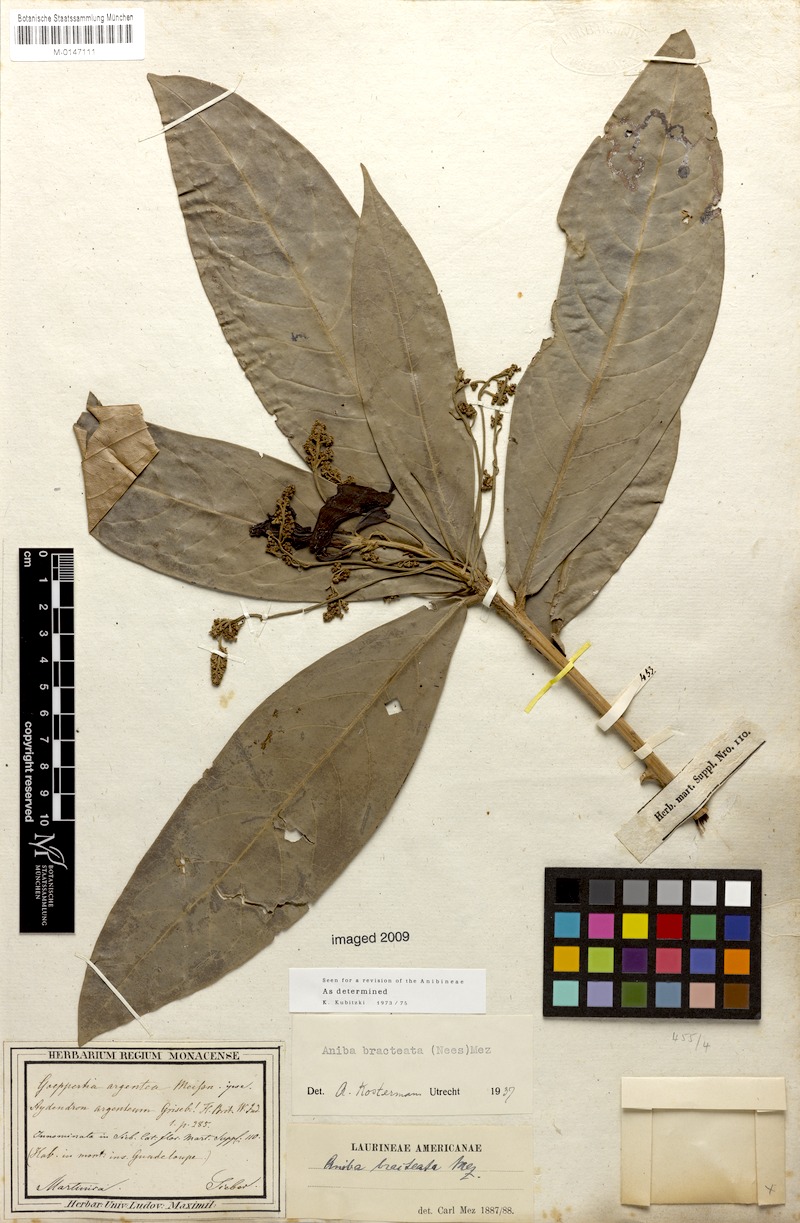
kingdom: Plantae
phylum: Tracheophyta
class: Magnoliopsida
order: Laurales
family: Lauraceae
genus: Aniba
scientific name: Aniba bracteata
